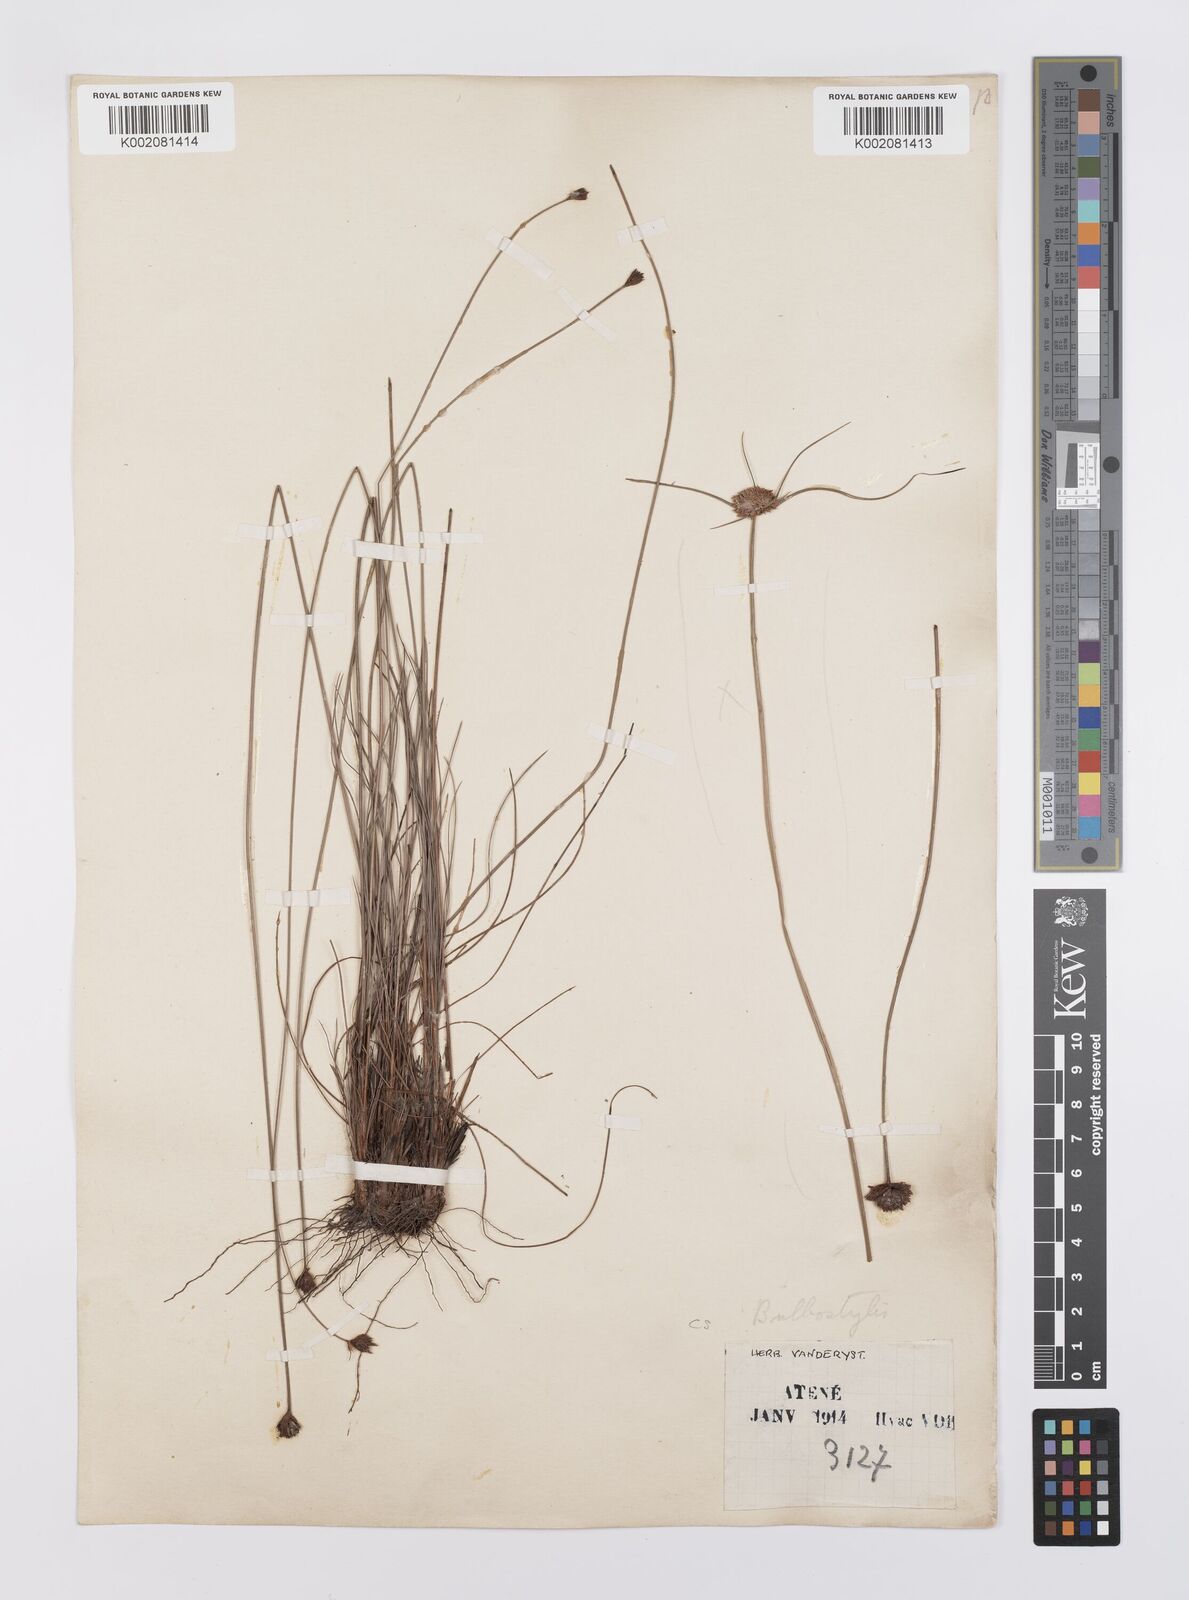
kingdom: Plantae
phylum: Tracheophyta
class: Liliopsida
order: Poales
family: Cyperaceae
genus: Bulbostylis
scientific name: Bulbostylis filamentosa
